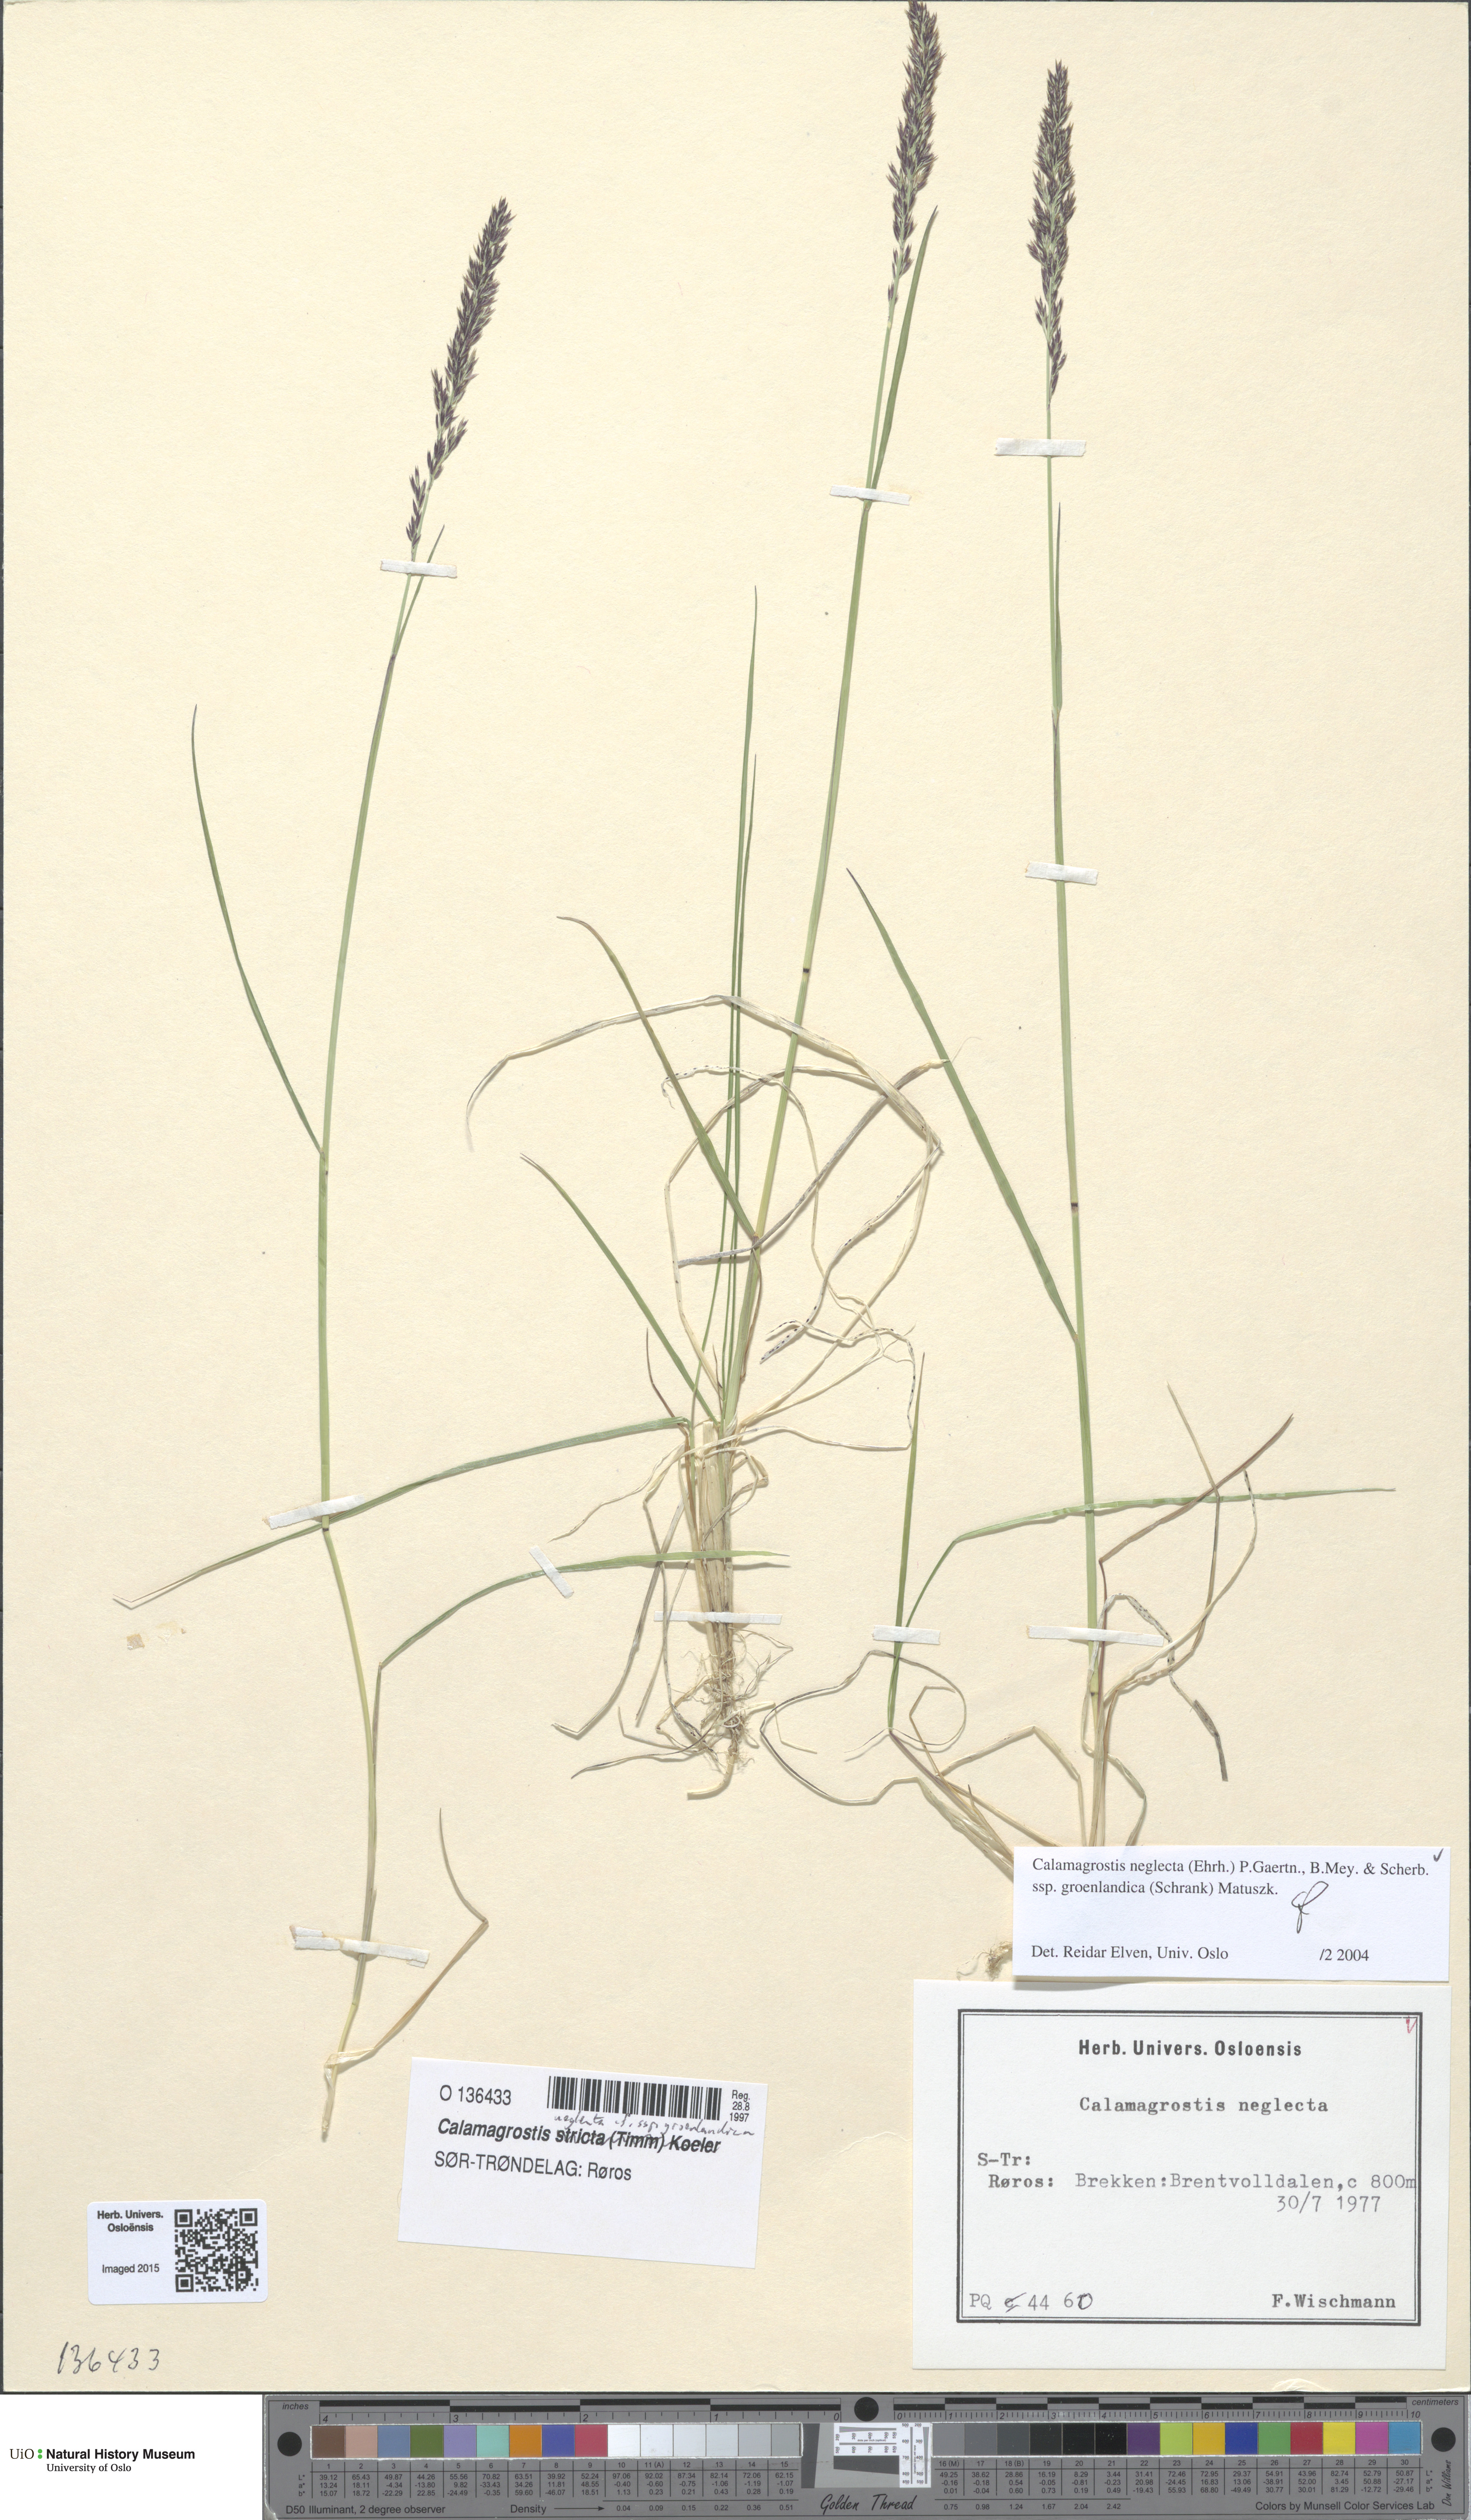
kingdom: Plantae
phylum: Tracheophyta
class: Liliopsida
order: Poales
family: Poaceae
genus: Calamagrostis
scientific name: Calamagrostis stricta
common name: Narrow small-reed
